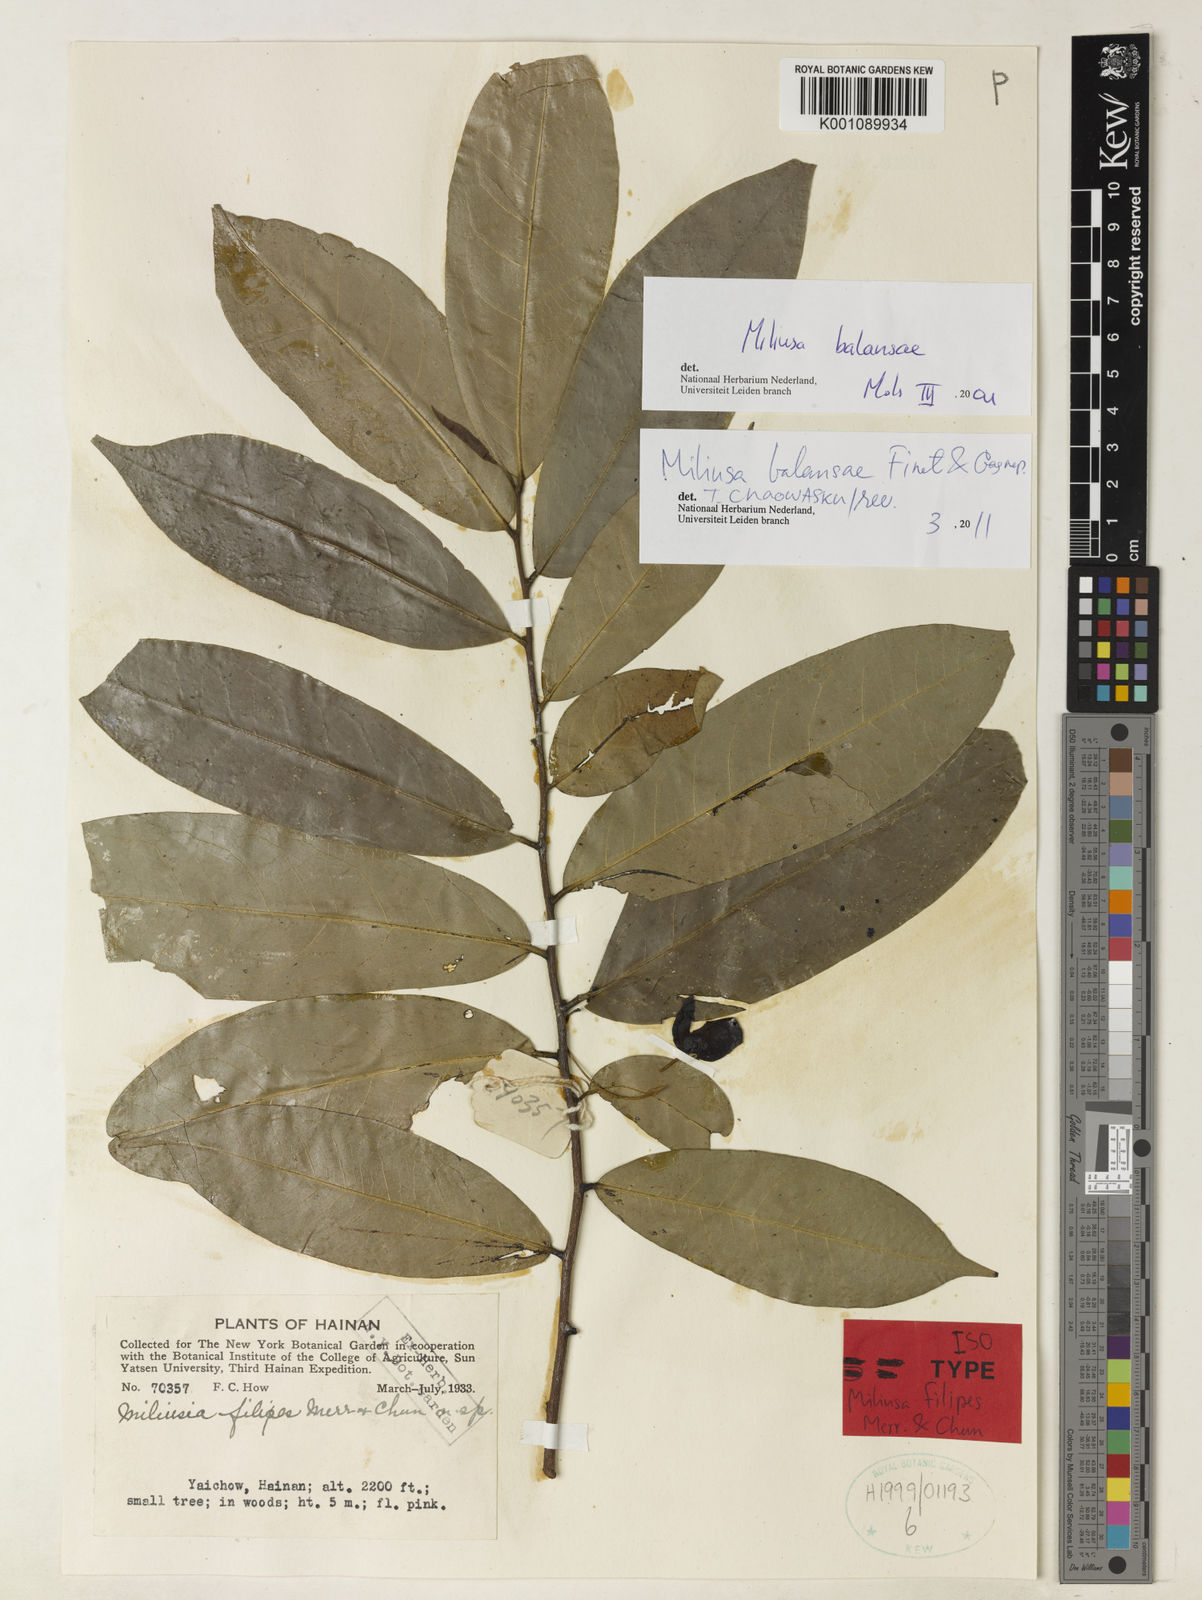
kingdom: Plantae
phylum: Tracheophyta
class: Magnoliopsida
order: Magnoliales
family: Annonaceae
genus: Miliusa
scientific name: Miliusa balansae
